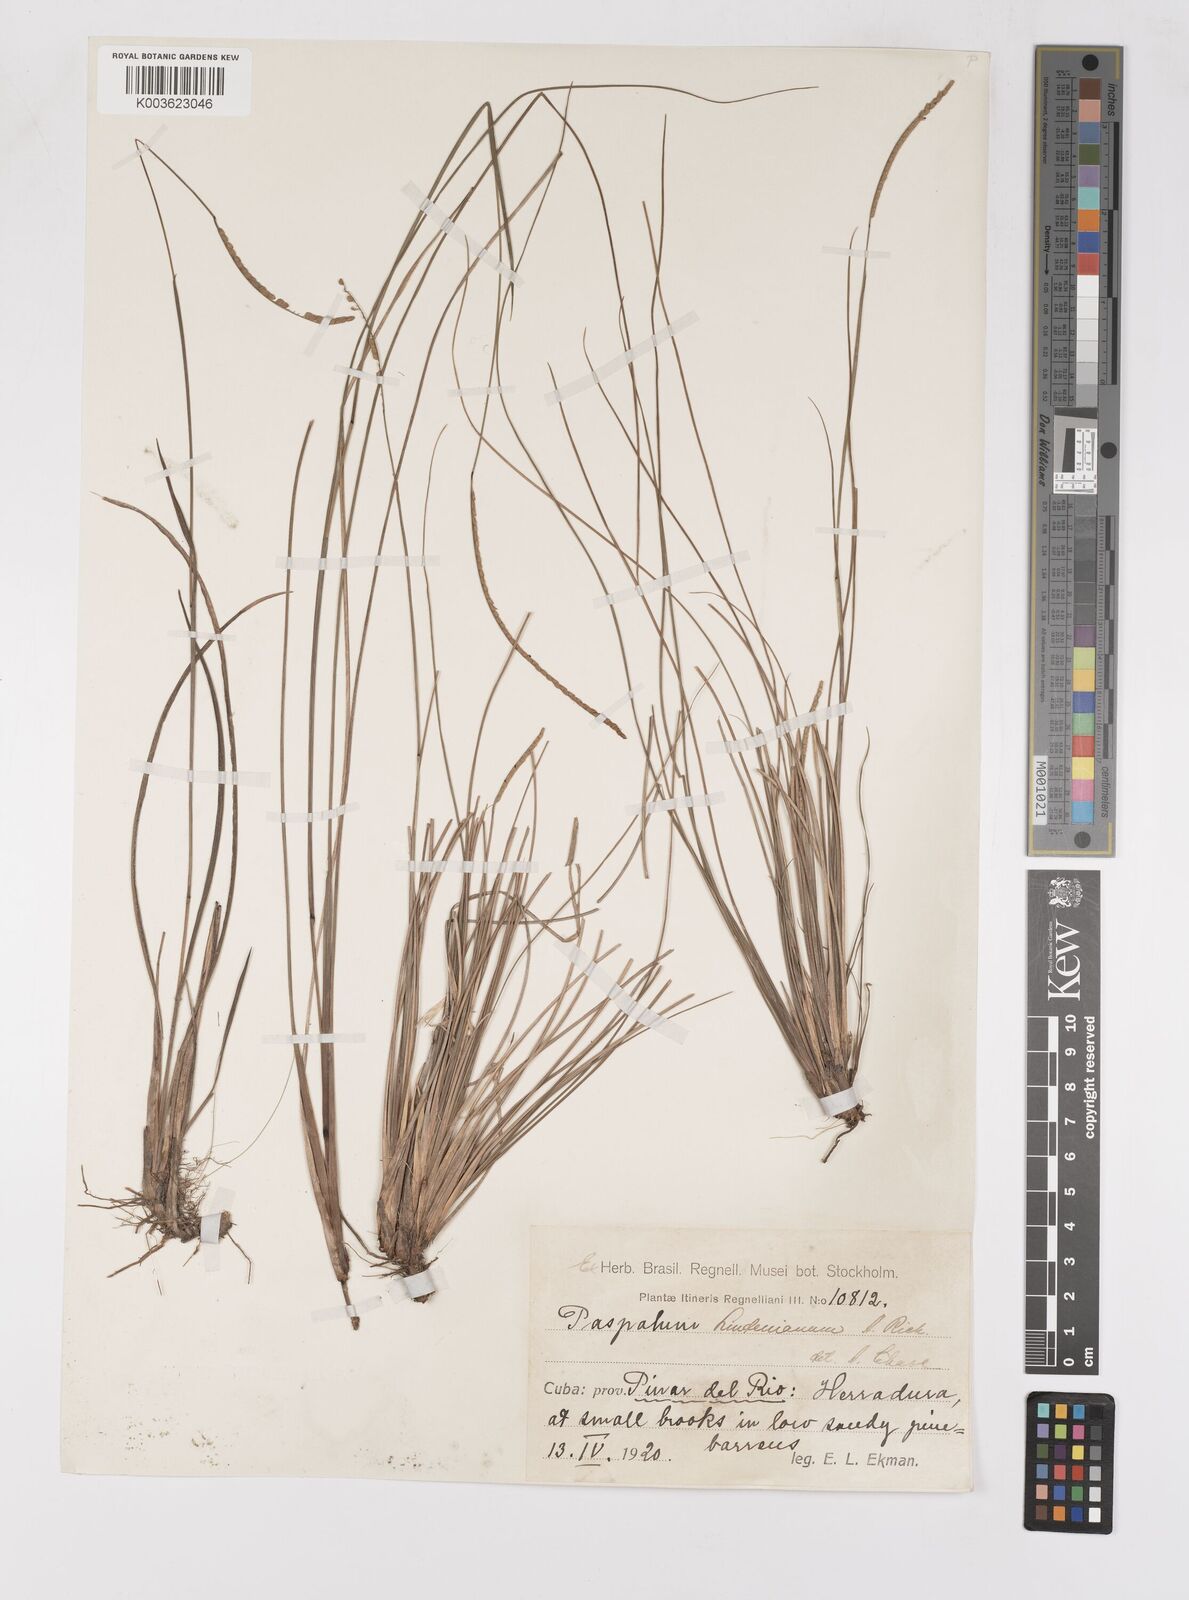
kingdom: Plantae
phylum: Tracheophyta
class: Liliopsida
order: Poales
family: Poaceae
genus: Paspalum
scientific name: Paspalum lindenianum
